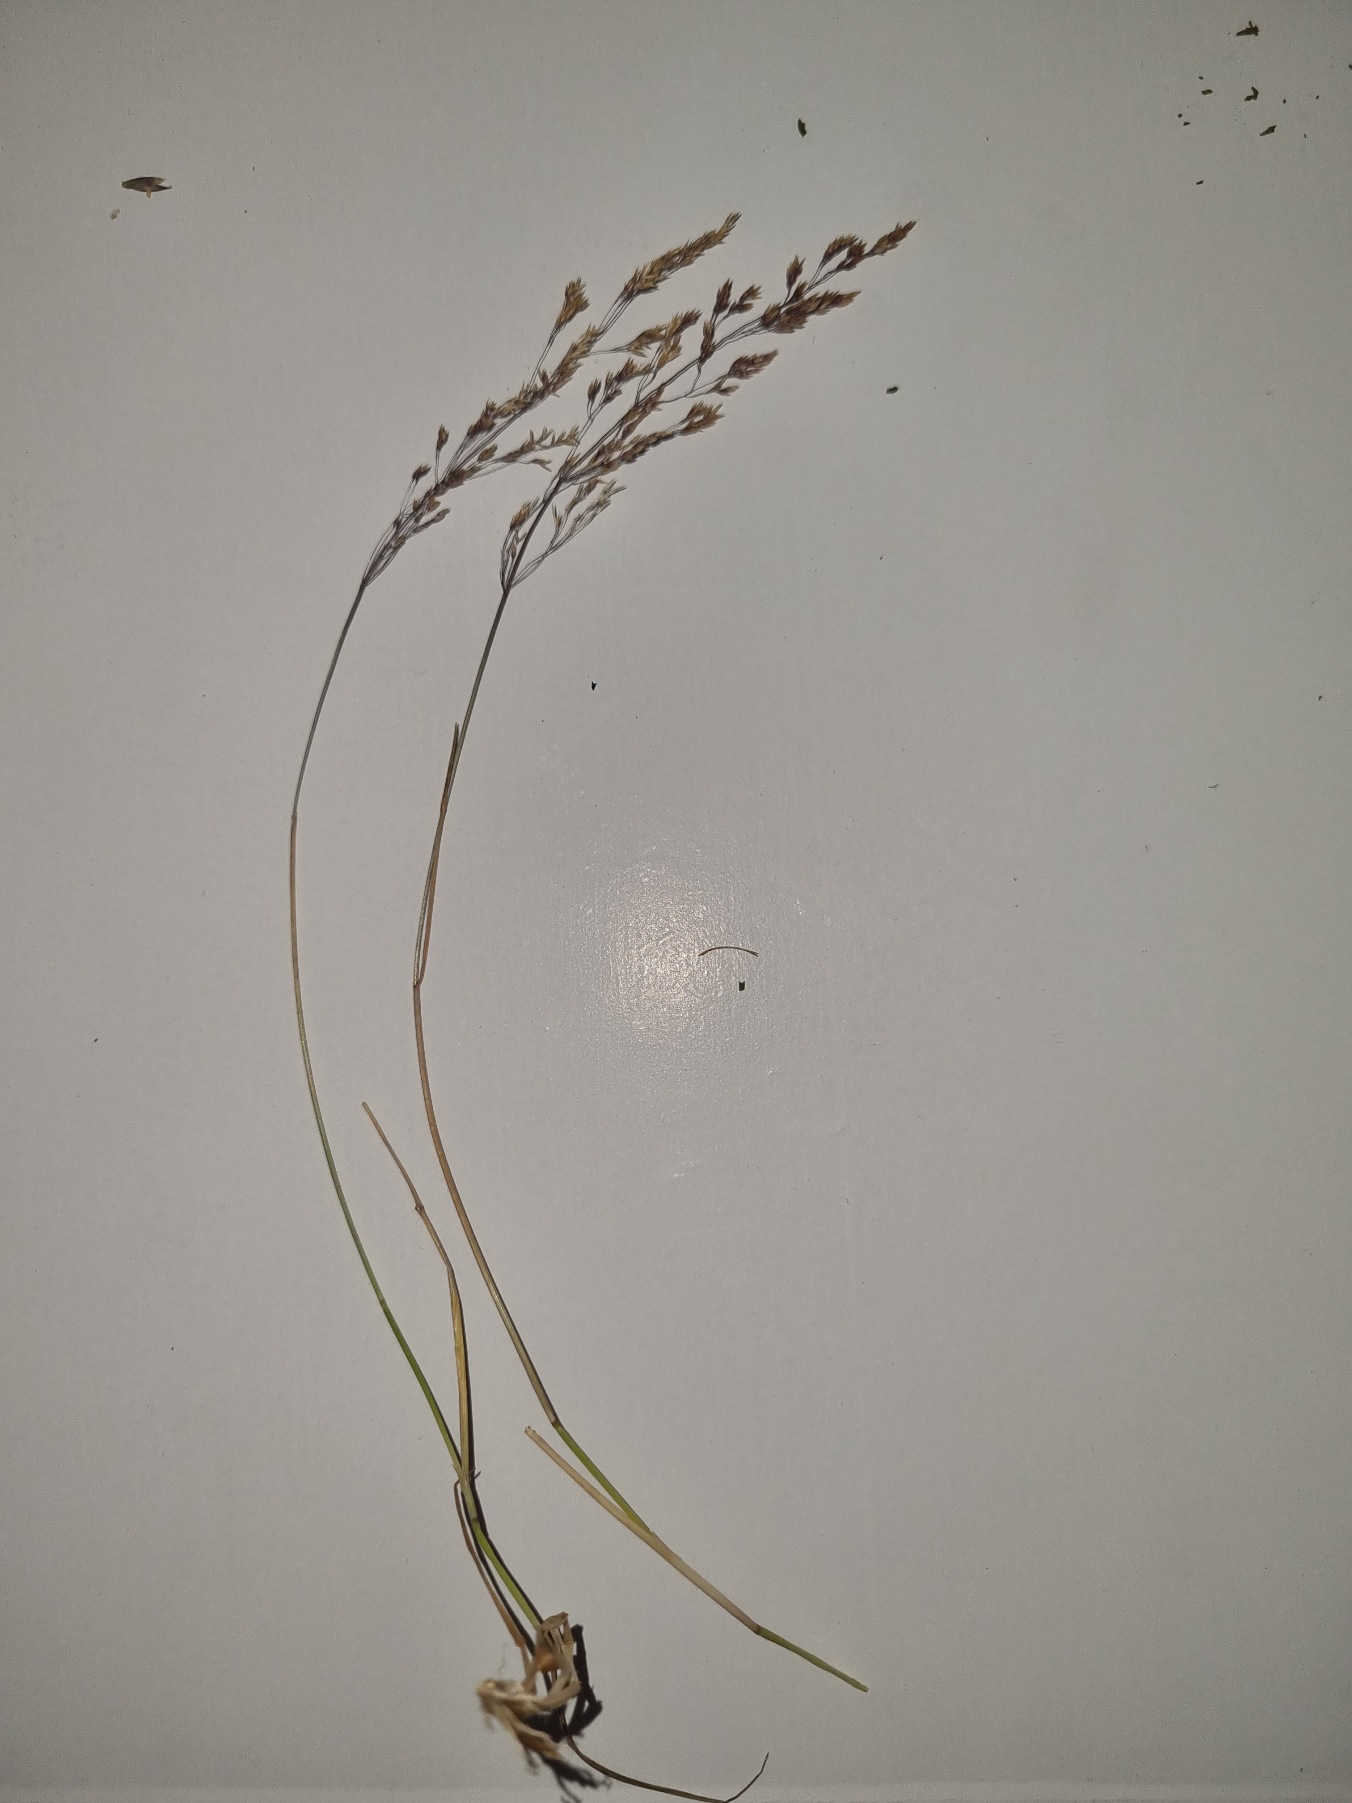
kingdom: Plantae
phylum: Tracheophyta
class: Liliopsida
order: Poales
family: Cyperaceae
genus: Eleocharis
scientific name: Eleocharis palustris
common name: Almindelig sumpstrå
